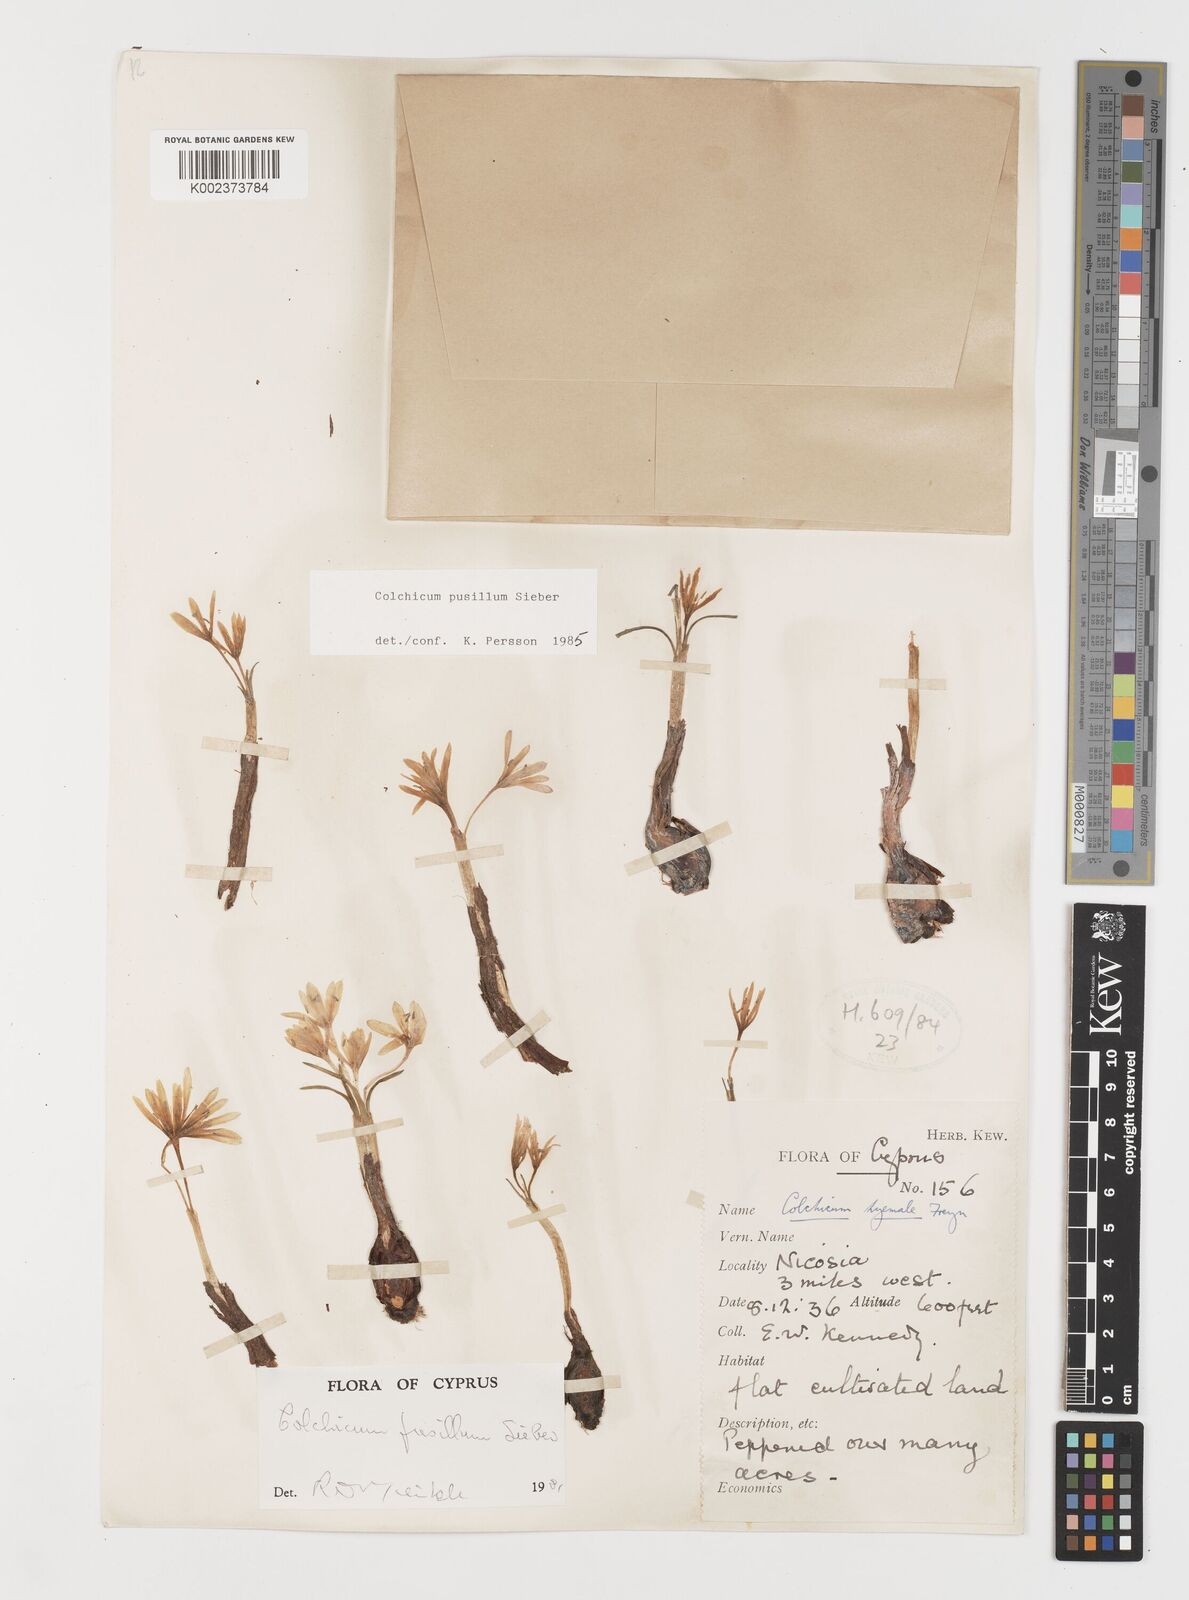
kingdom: Plantae
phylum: Tracheophyta
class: Liliopsida
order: Liliales
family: Colchicaceae
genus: Colchicum
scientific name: Colchicum pusillum
